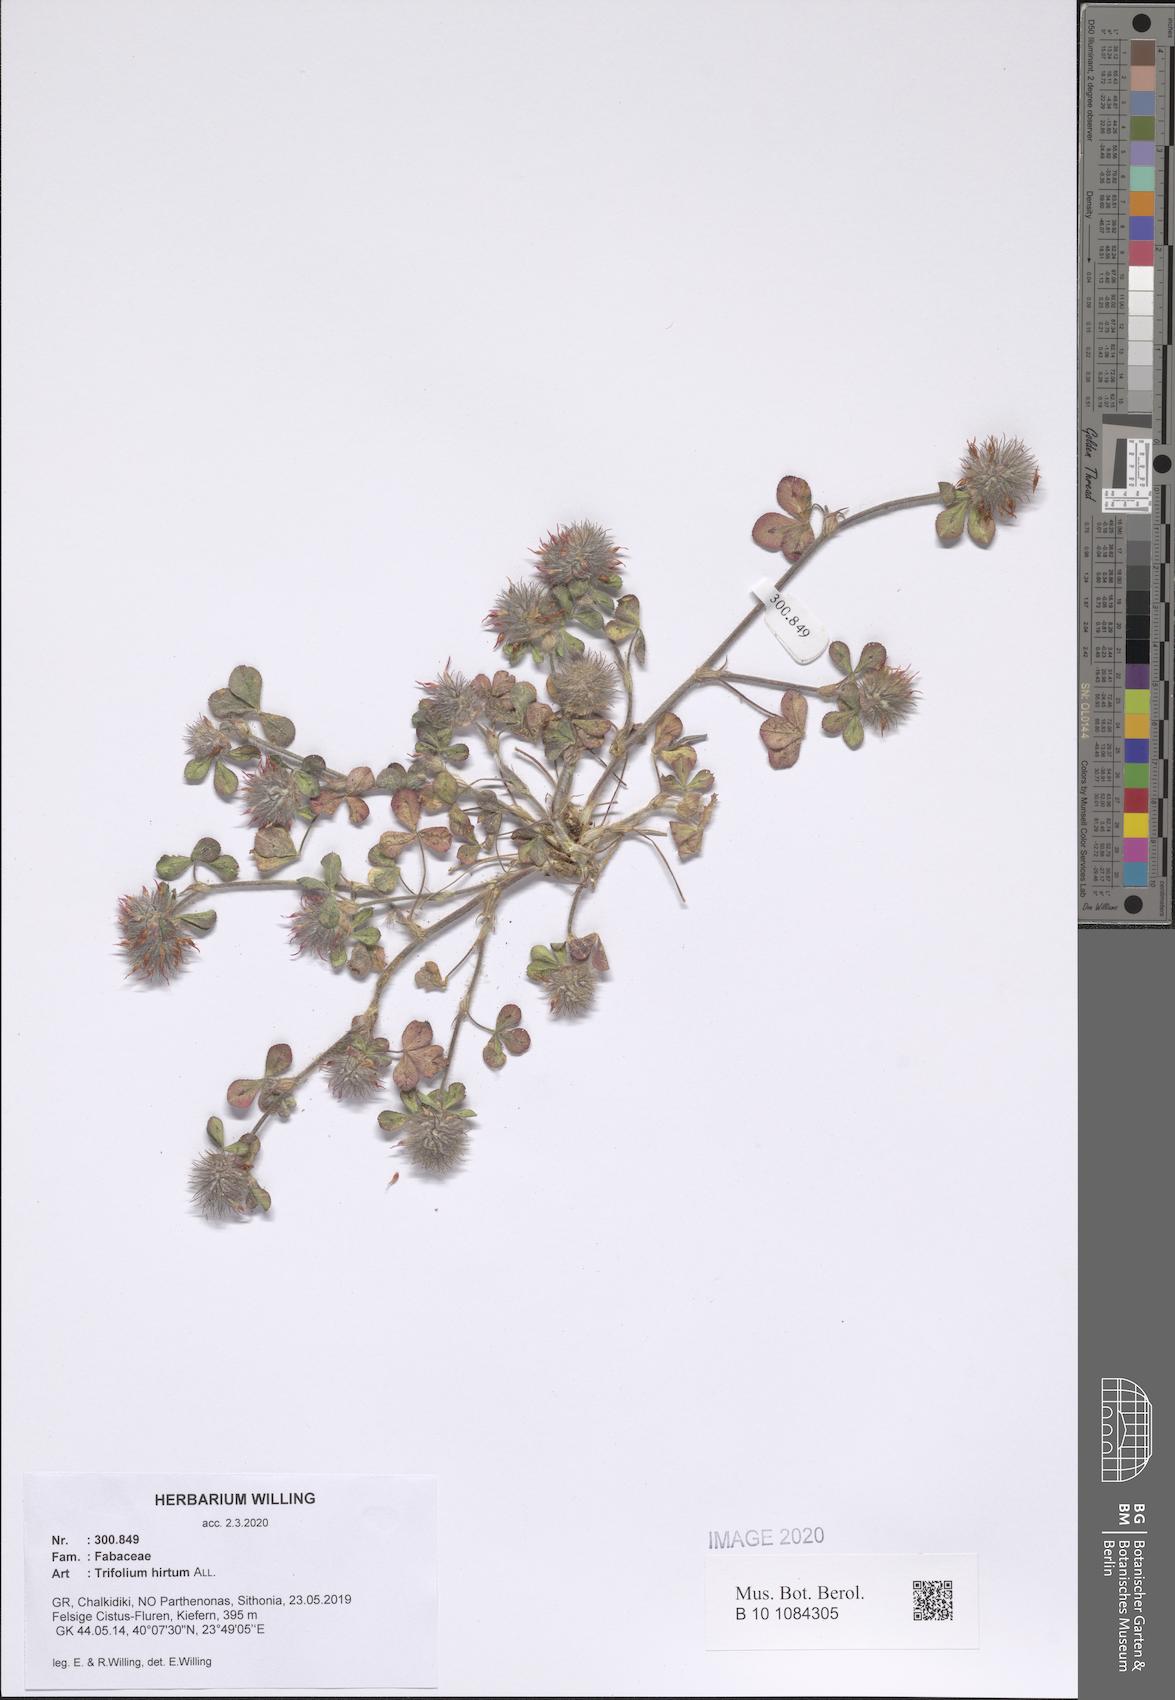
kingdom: Plantae
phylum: Tracheophyta
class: Magnoliopsida
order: Fabales
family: Fabaceae
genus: Trifolium
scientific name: Trifolium hirtum
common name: Rose clover
